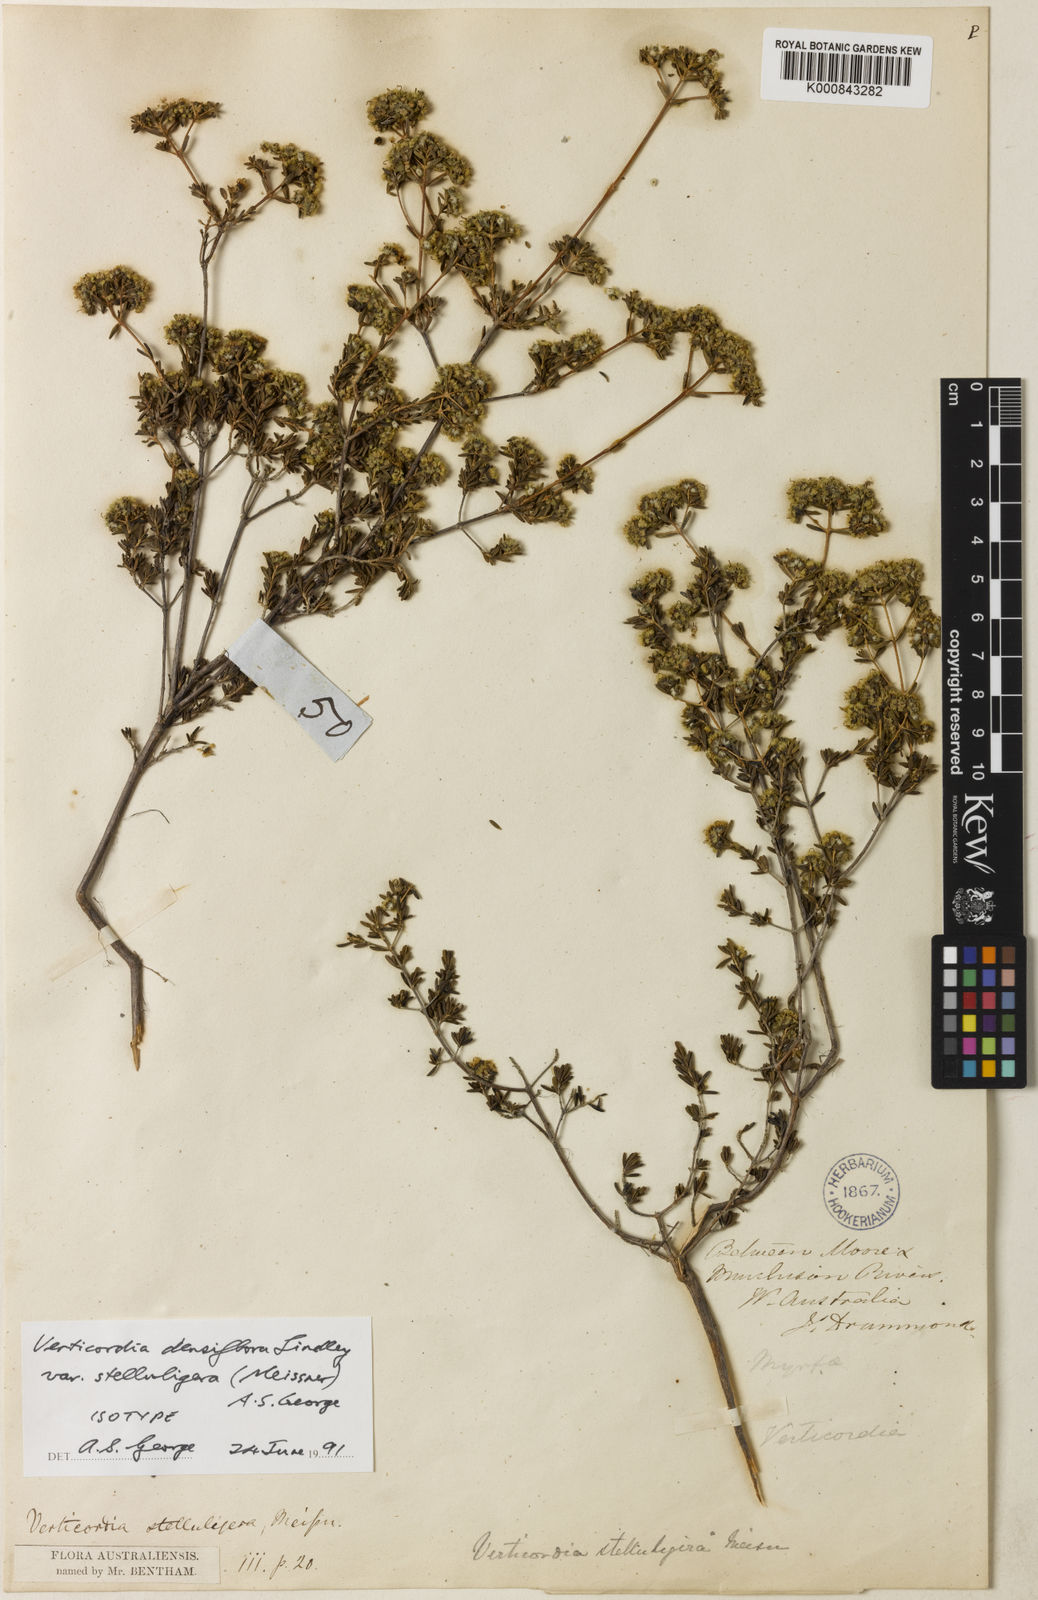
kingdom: Plantae
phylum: Tracheophyta
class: Magnoliopsida
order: Myrtales
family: Myrtaceae
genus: Verticordia
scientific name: Verticordia densiflora
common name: Compact feather-flower
